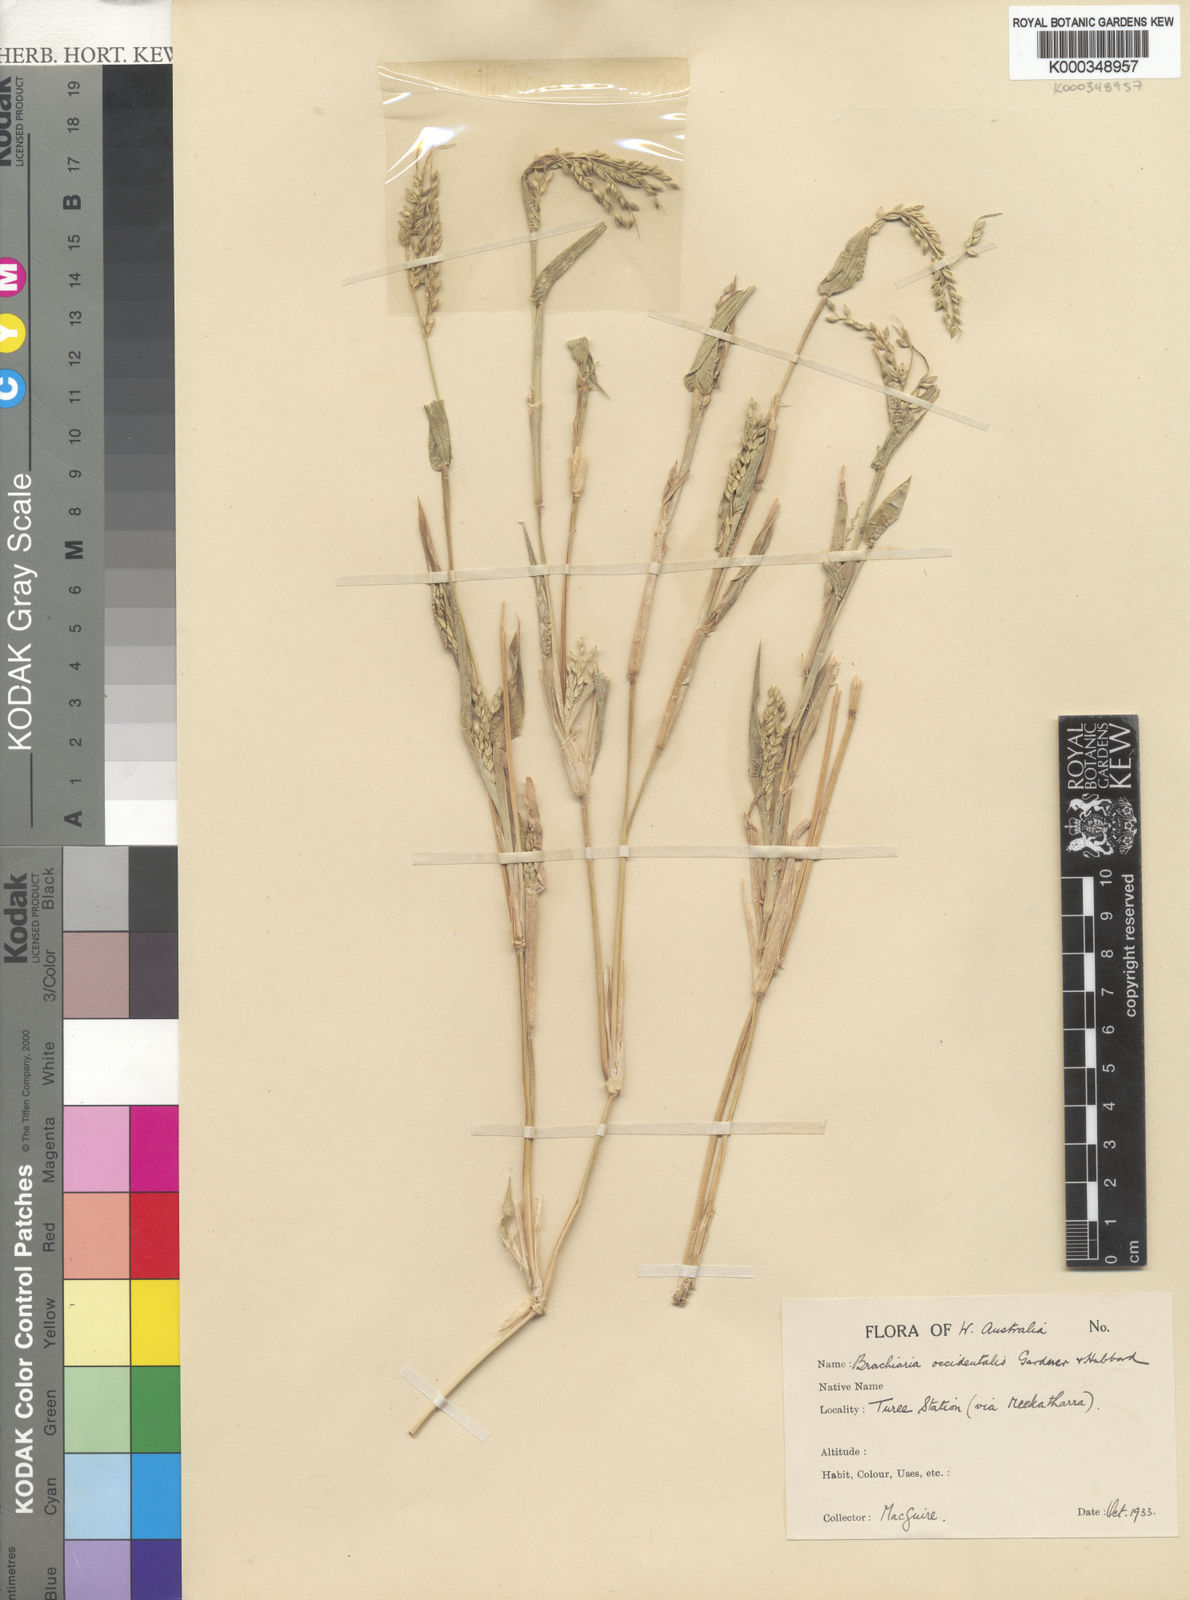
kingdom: Plantae
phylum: Tracheophyta
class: Liliopsida
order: Poales
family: Poaceae
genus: Urochloa
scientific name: Urochloa occidentalis
